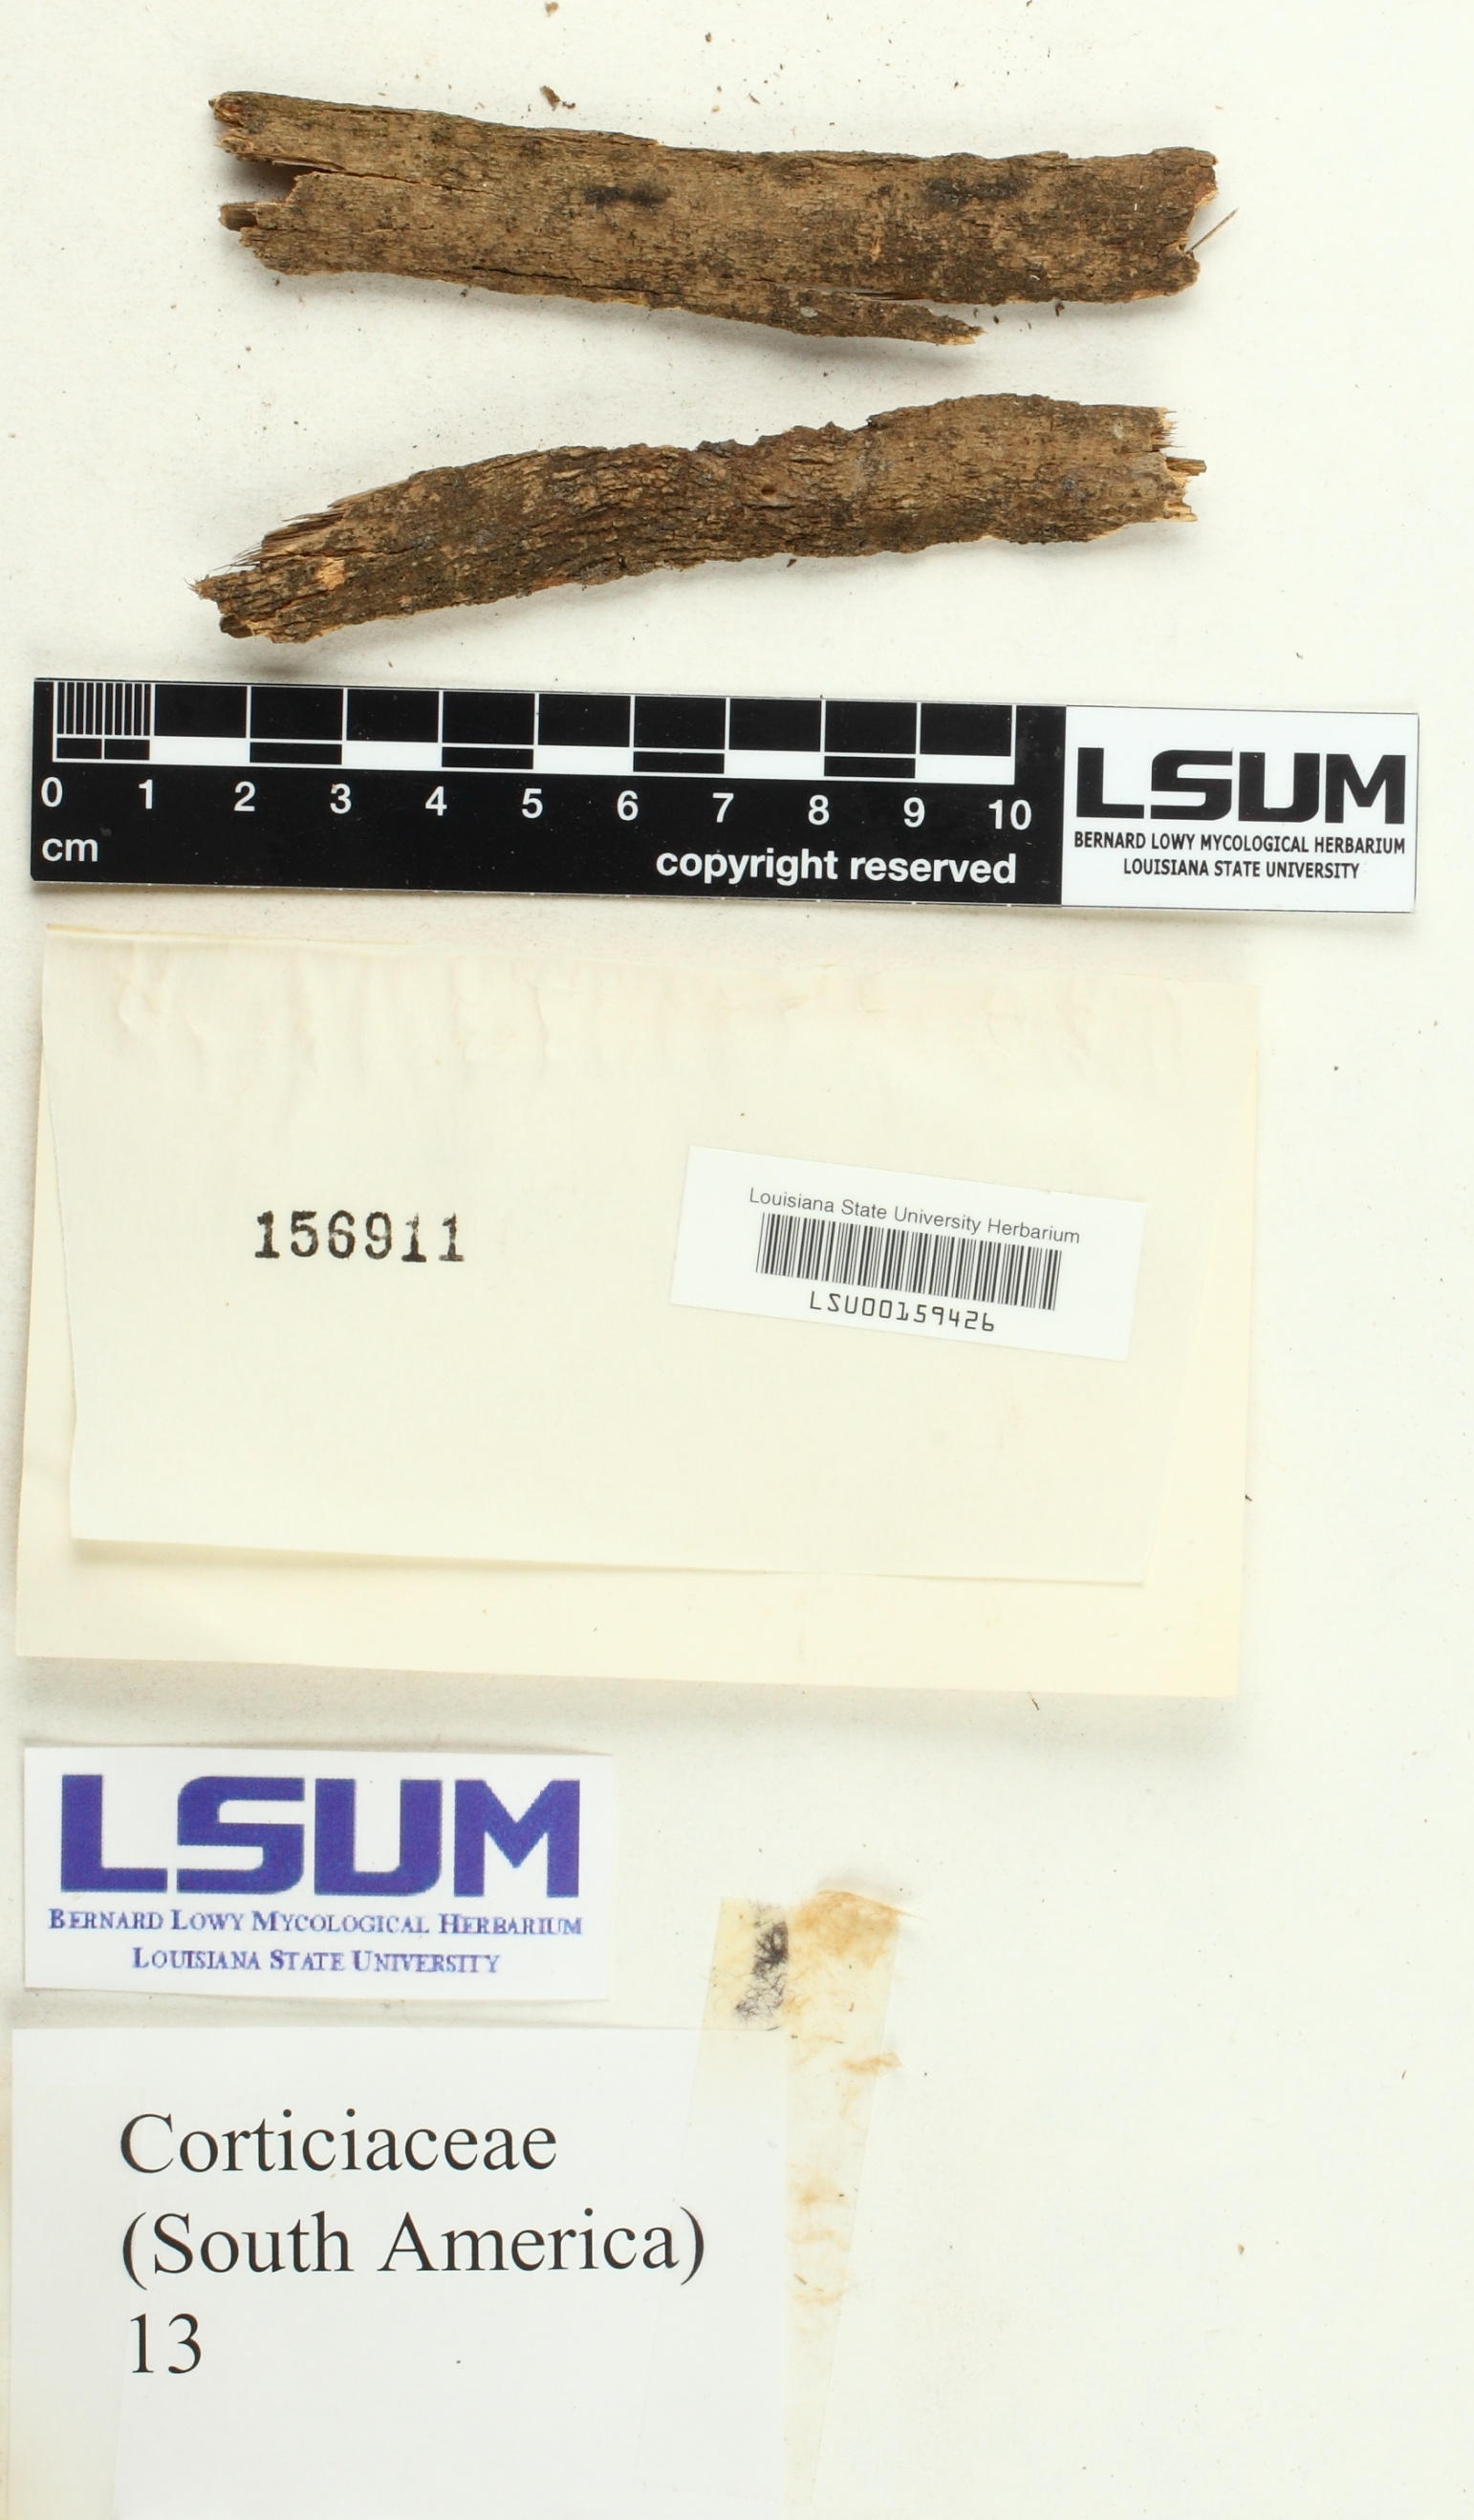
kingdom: Fungi
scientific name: Fungi
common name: Fungi
